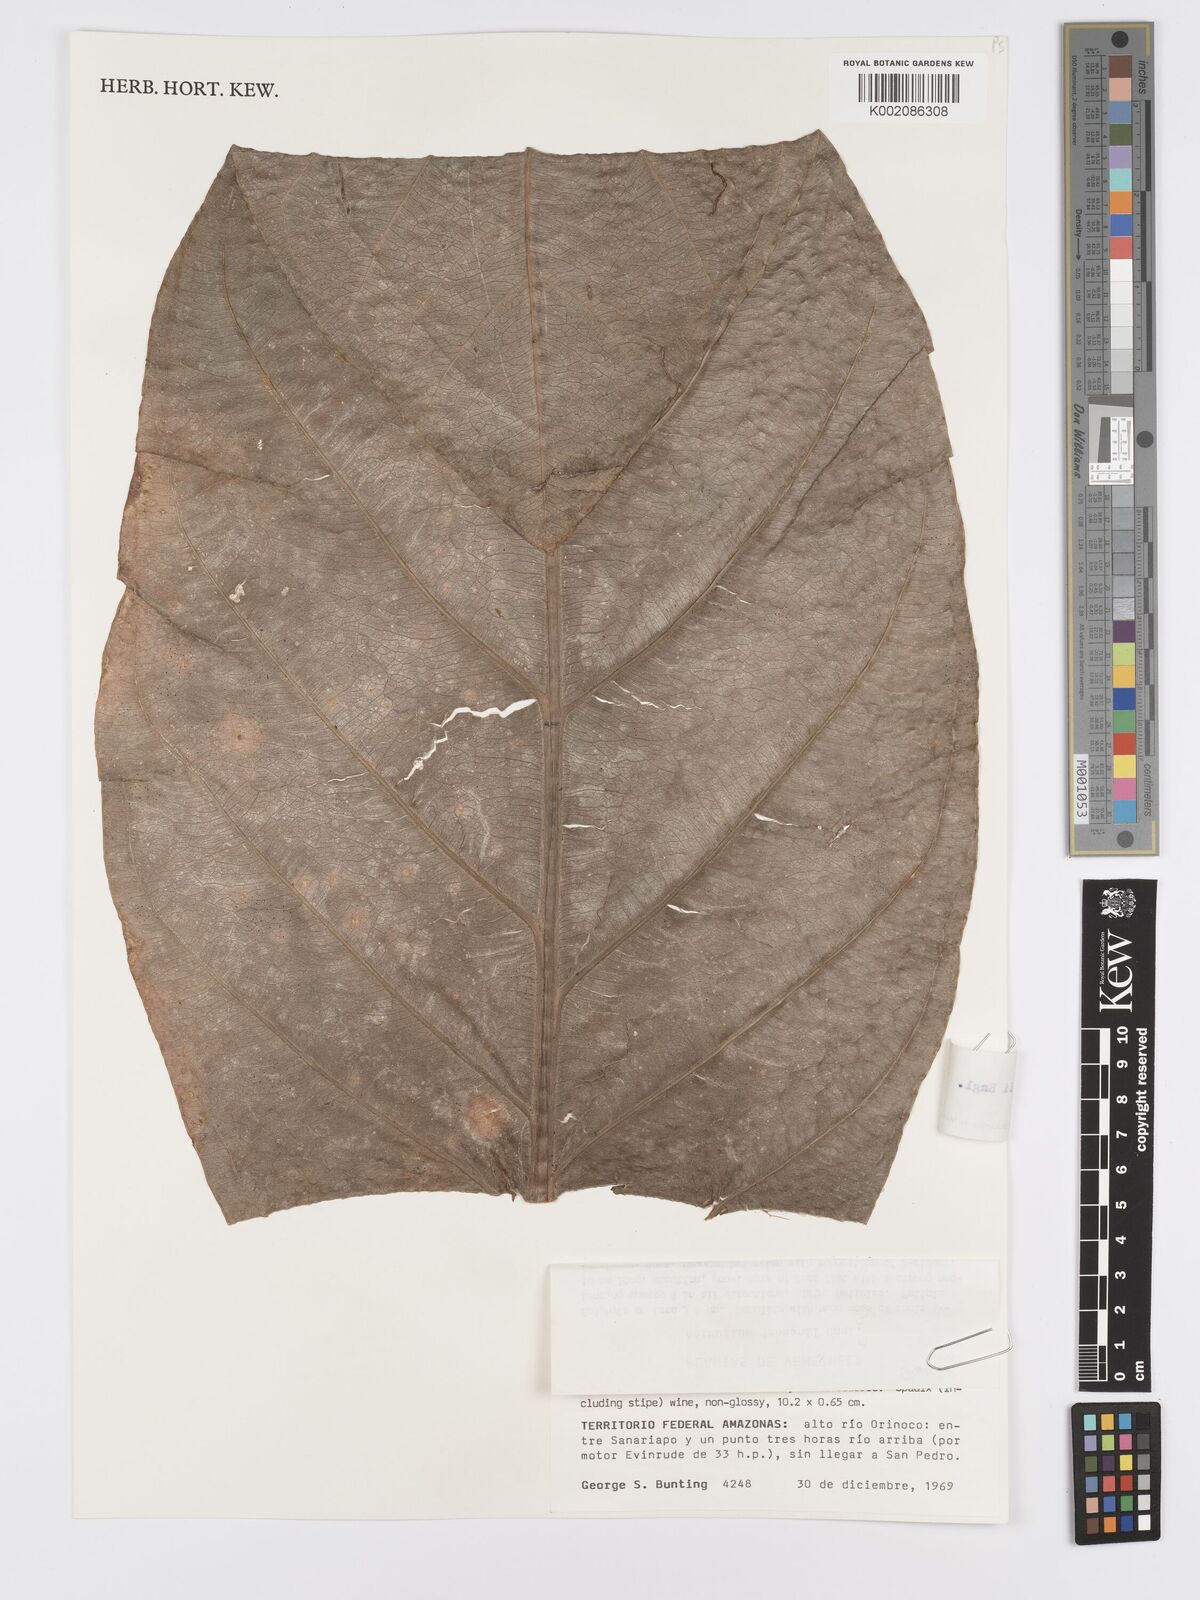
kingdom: Plantae
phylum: Tracheophyta
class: Liliopsida
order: Alismatales
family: Araceae
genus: Anthurium
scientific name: Anthurium jenmanii
